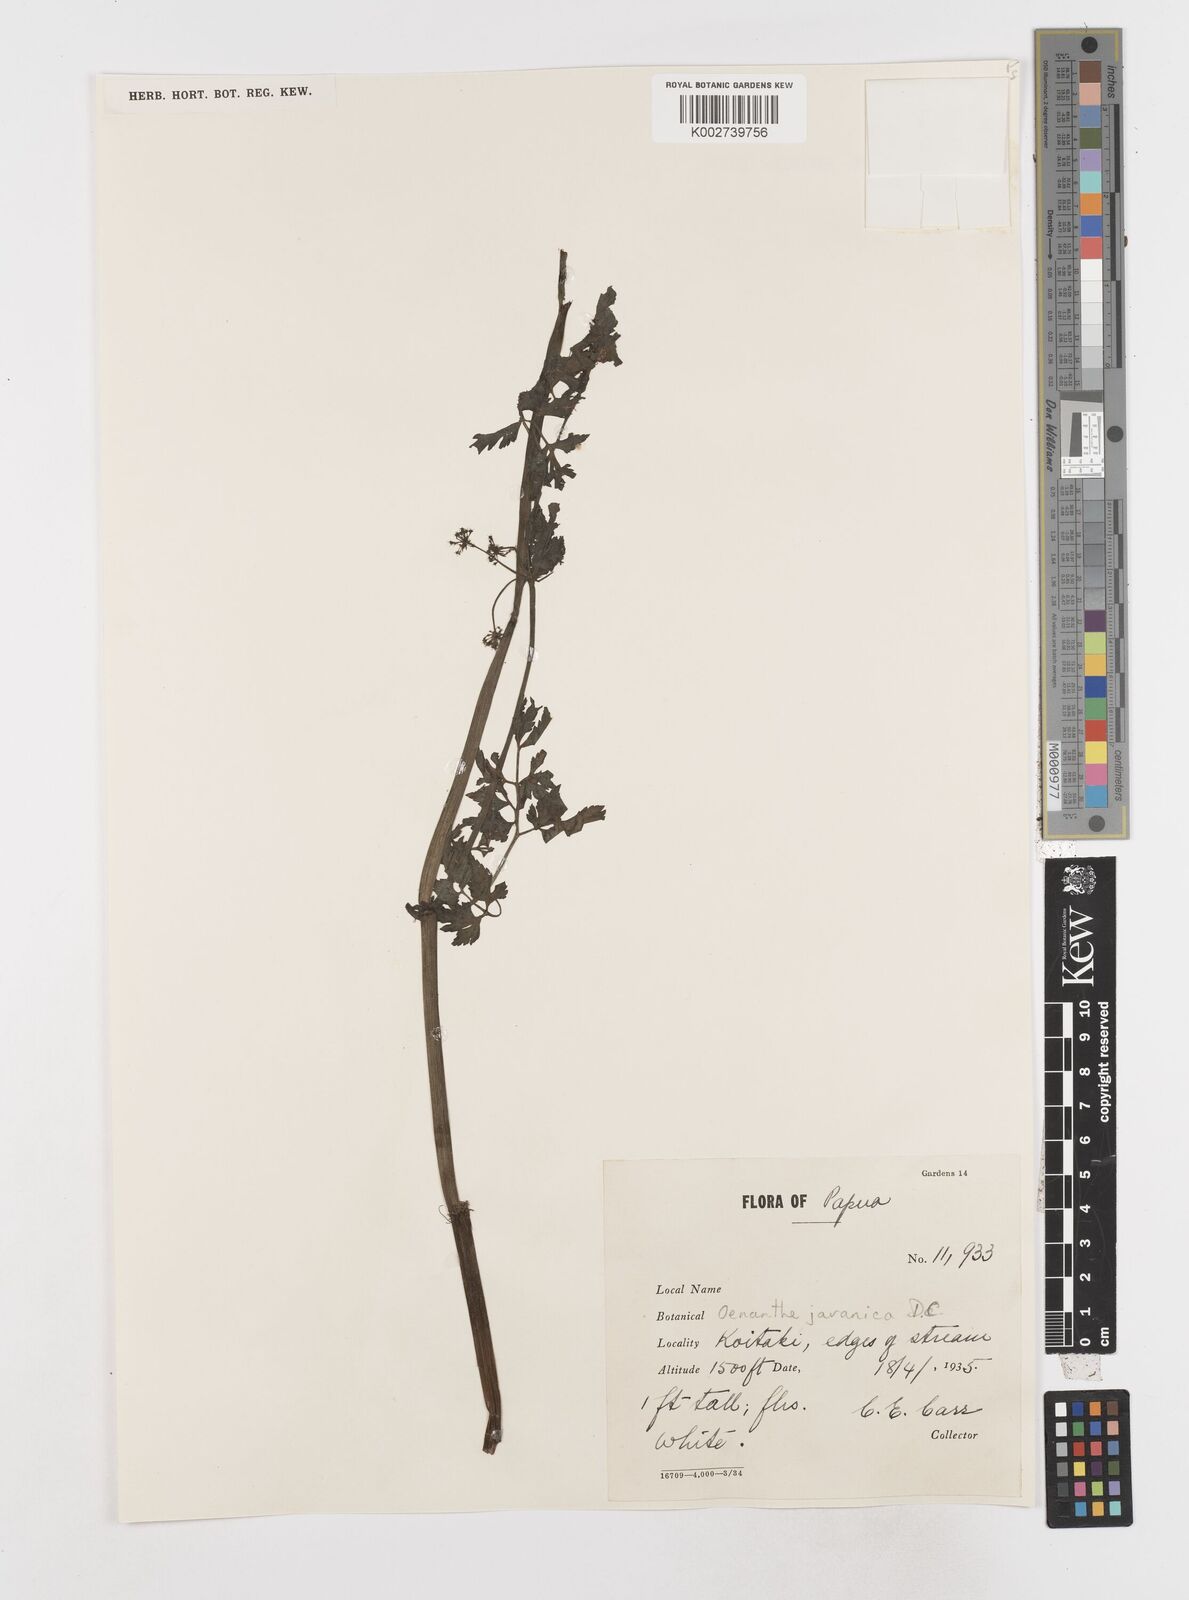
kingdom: Plantae
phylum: Tracheophyta
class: Magnoliopsida
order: Apiales
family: Apiaceae
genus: Oenanthe
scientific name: Oenanthe javanica
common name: Java water-dropwort
